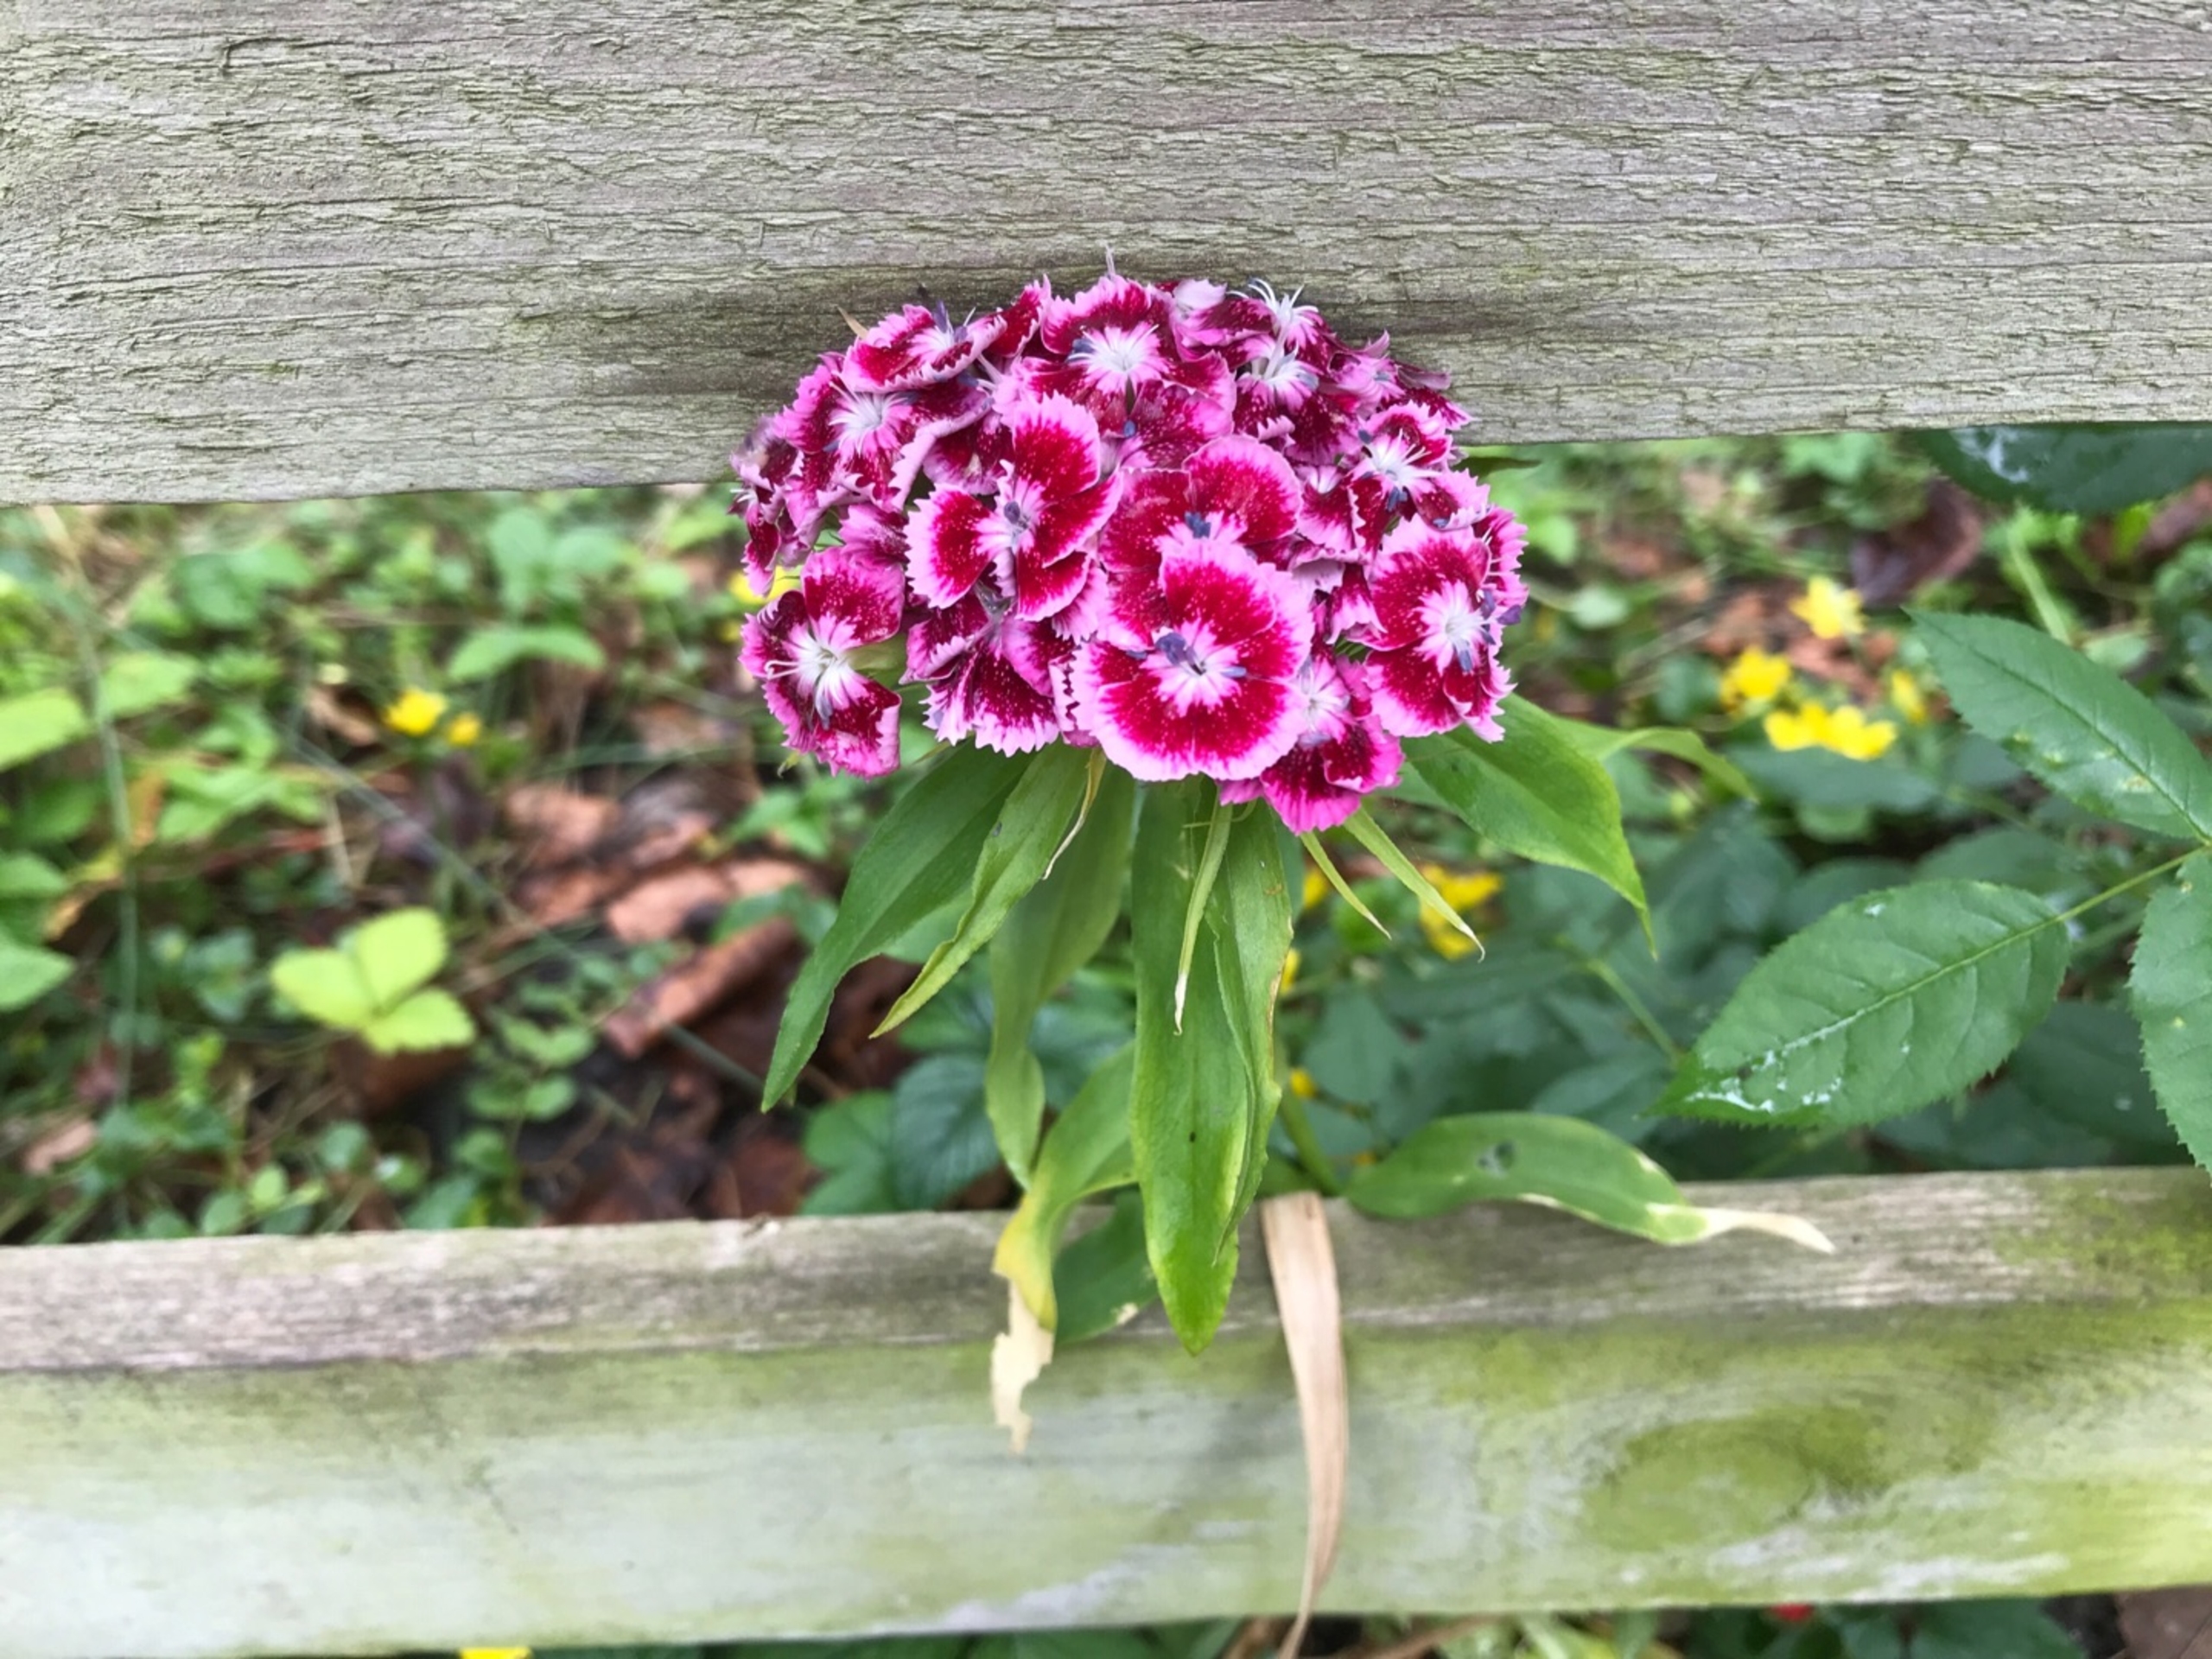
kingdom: Plantae
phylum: Tracheophyta
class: Magnoliopsida
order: Caryophyllales
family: Caryophyllaceae
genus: Dianthus
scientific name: Dianthus barbatus
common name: Studenter-nellike
